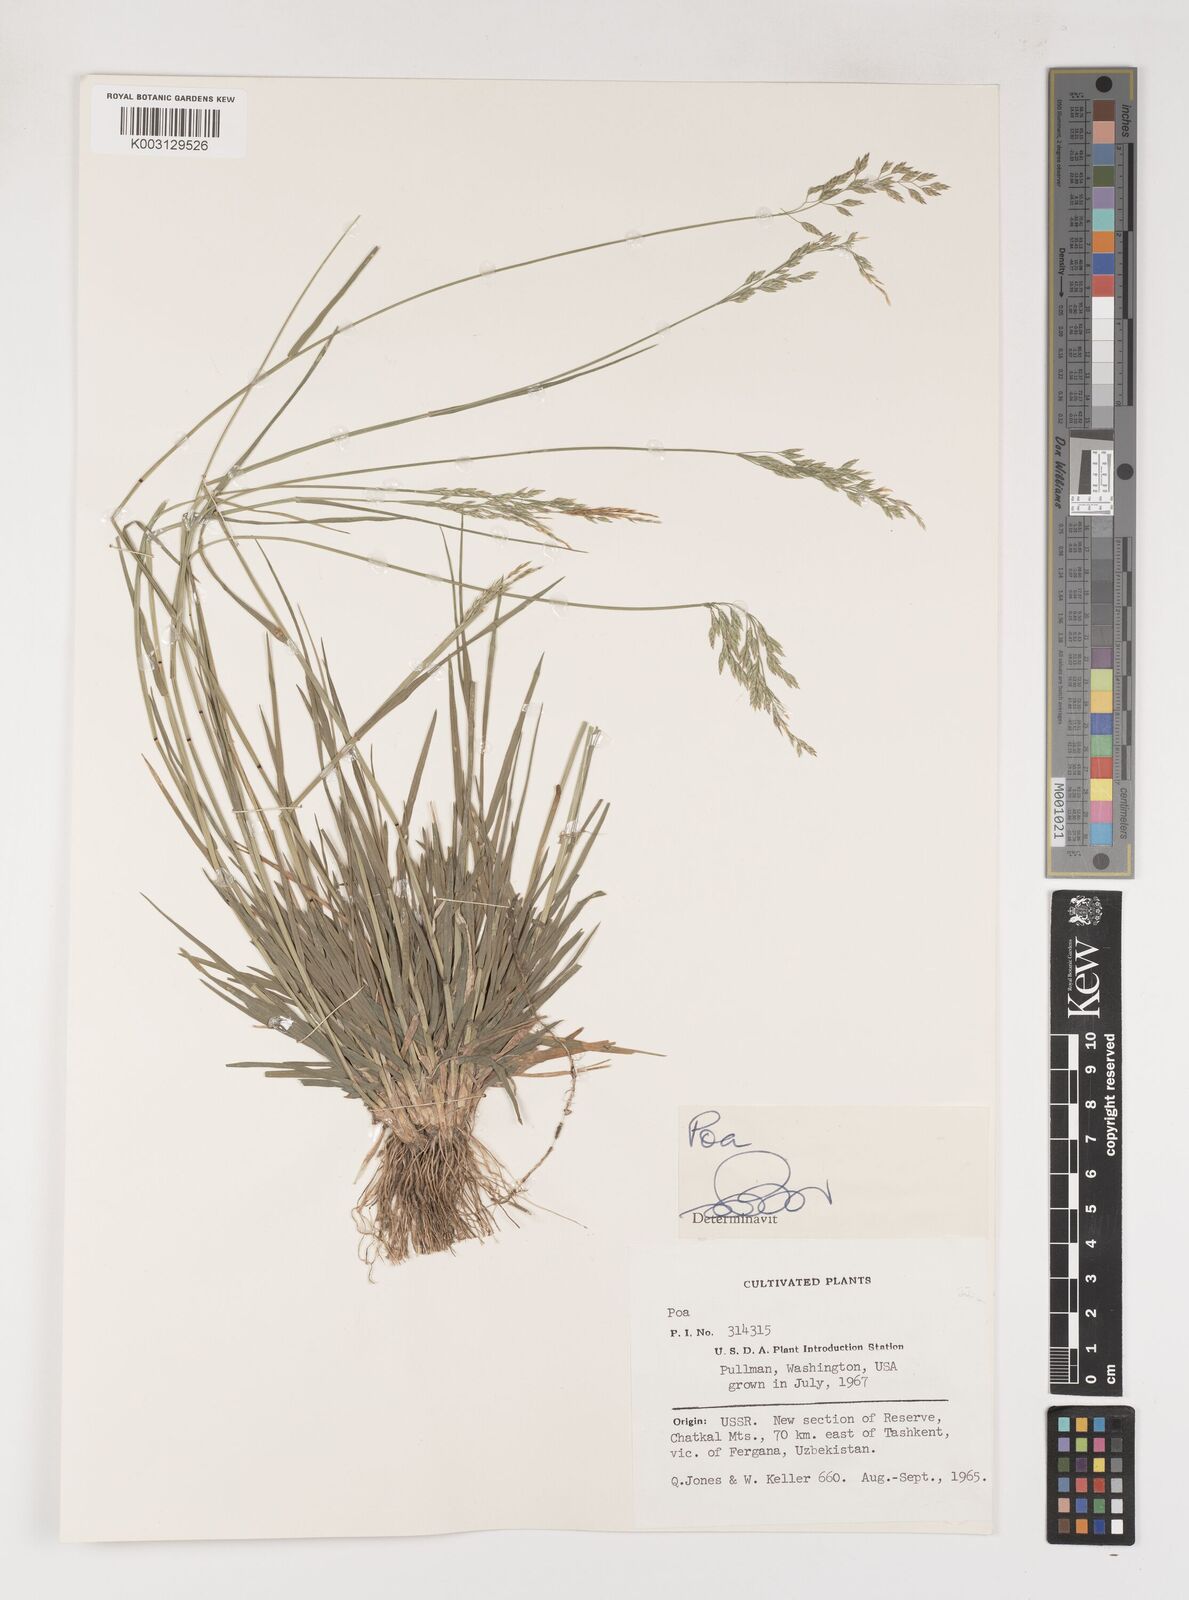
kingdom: Plantae
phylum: Tracheophyta
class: Liliopsida
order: Poales
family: Poaceae
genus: Poa
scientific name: Poa
